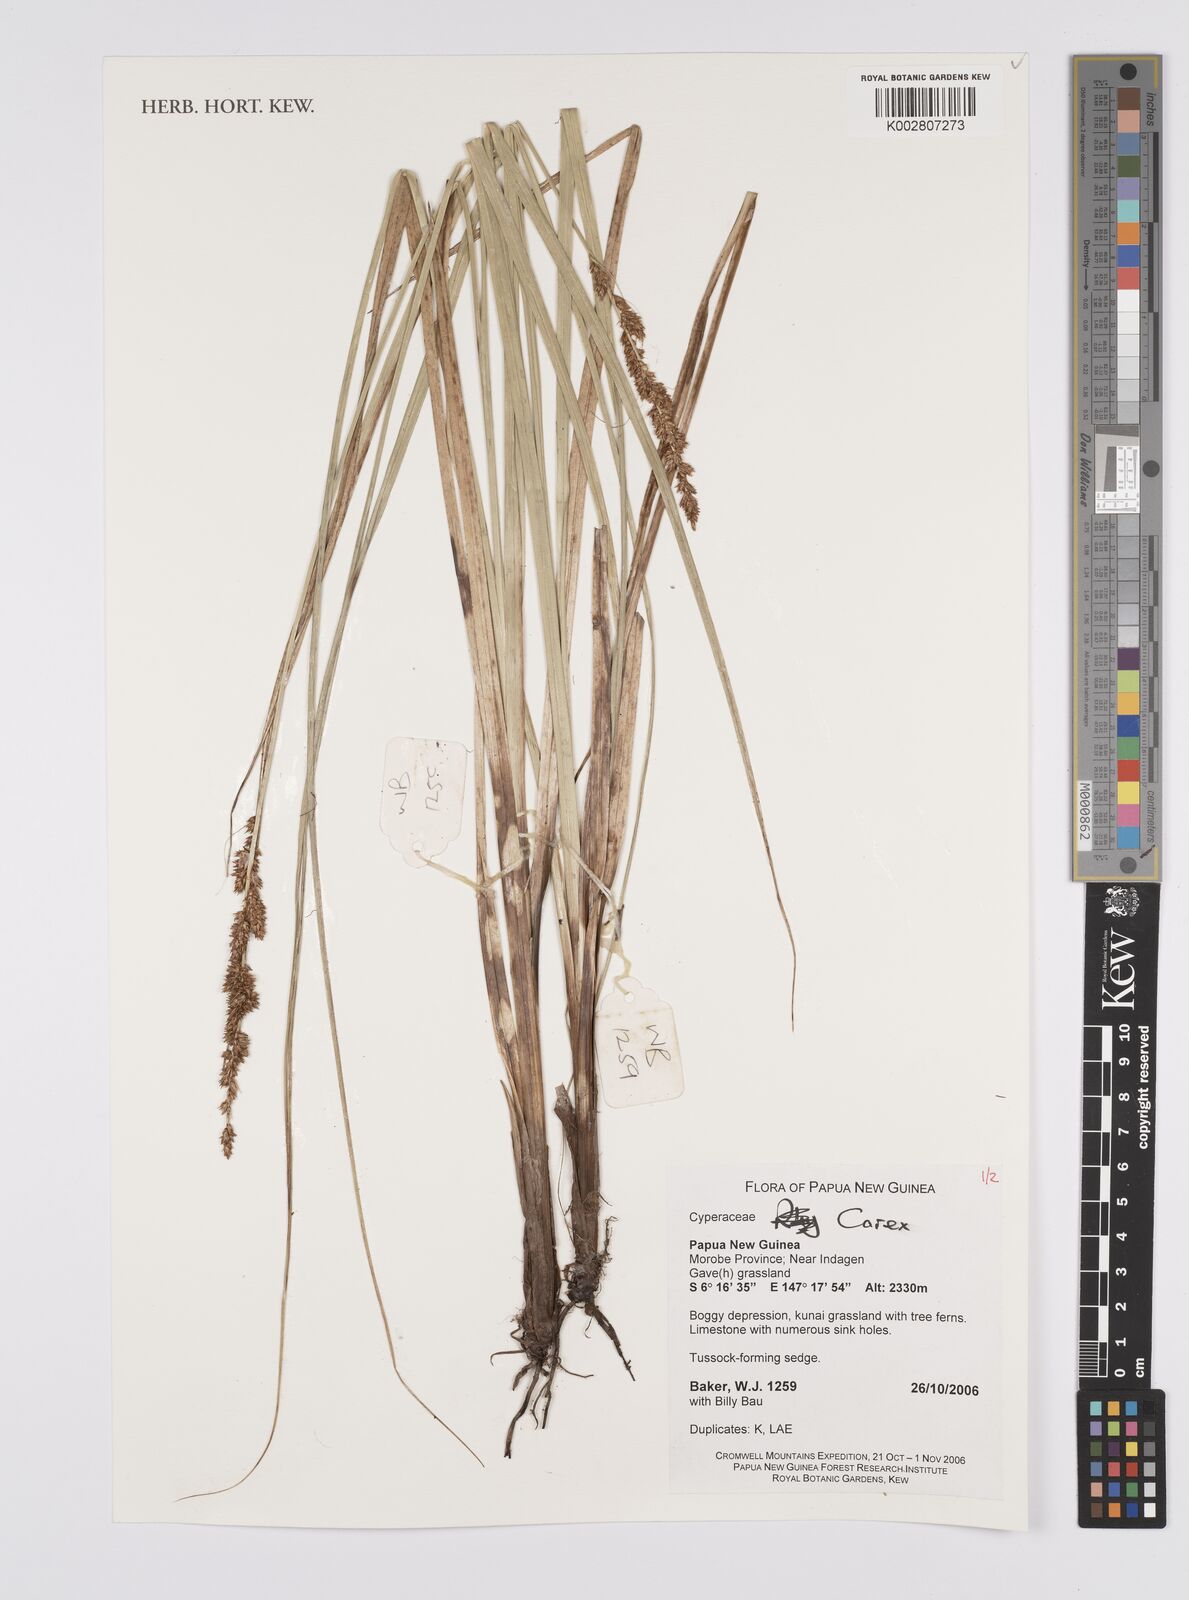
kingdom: Plantae
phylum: Tracheophyta
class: Liliopsida
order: Poales
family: Cyperaceae
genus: Carex
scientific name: Carex
